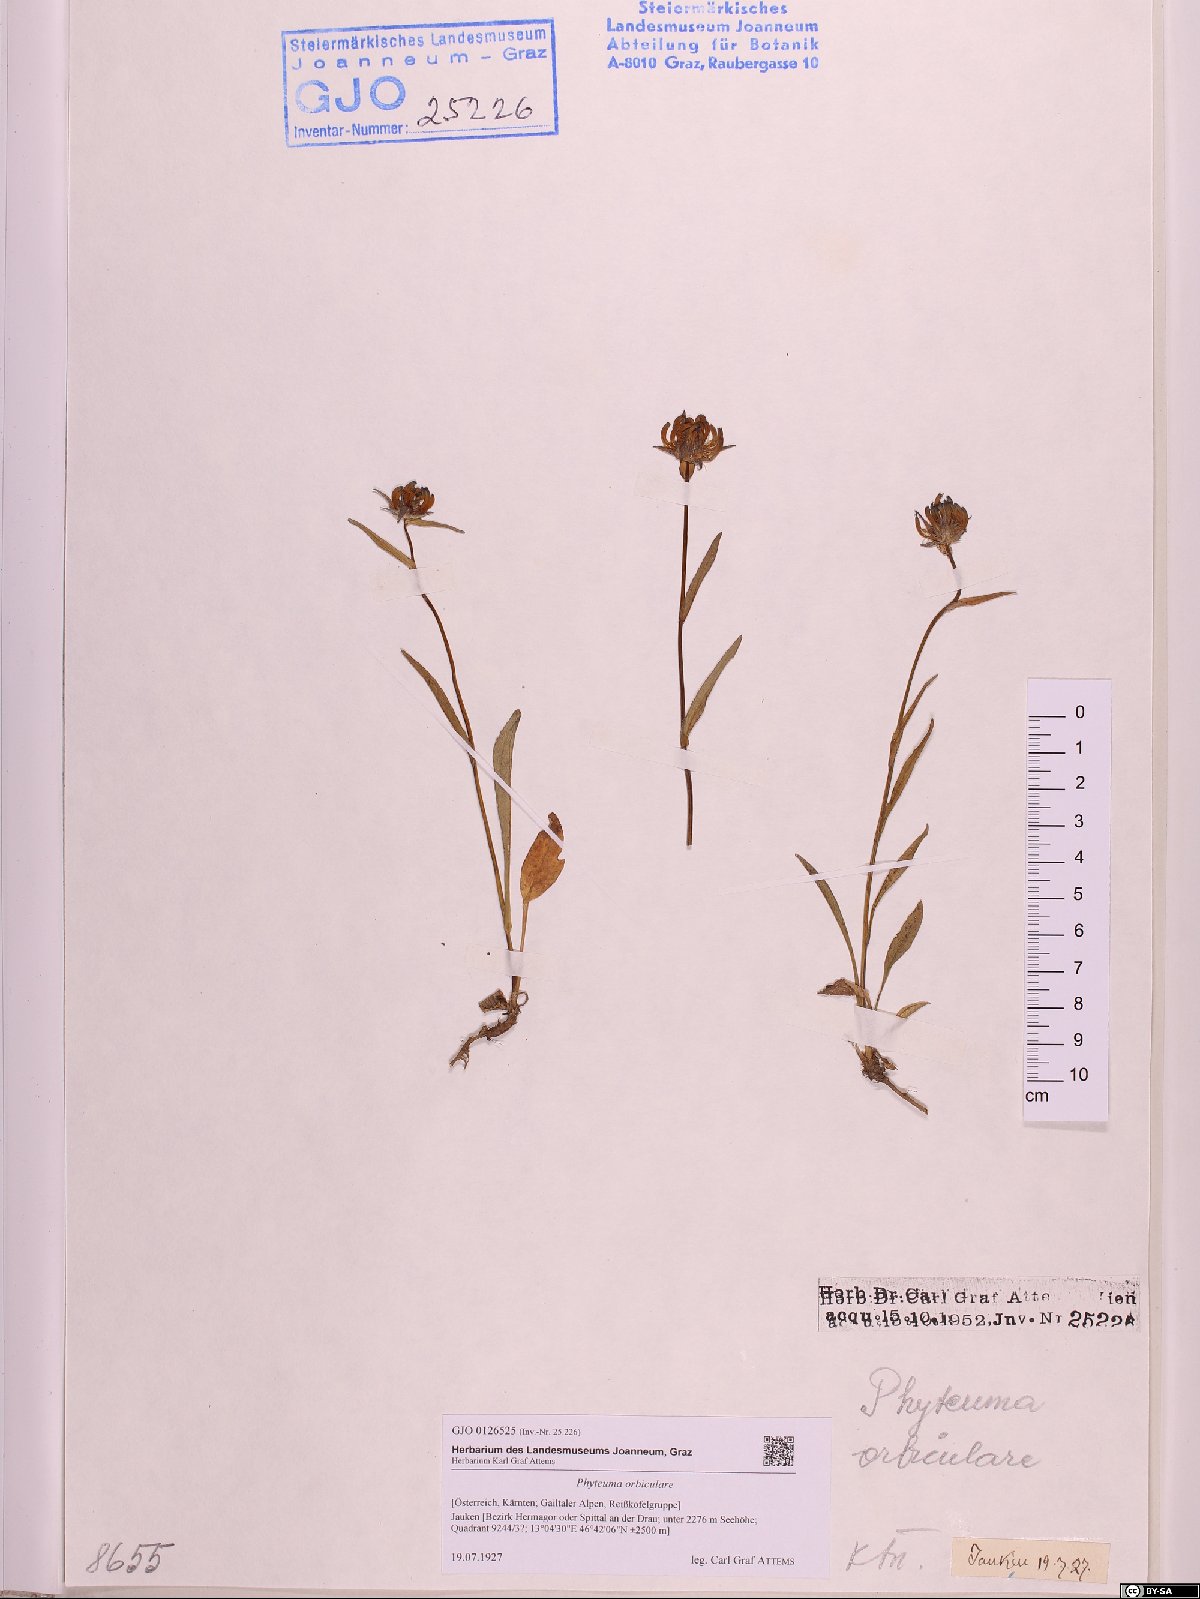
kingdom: Plantae
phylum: Tracheophyta
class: Magnoliopsida
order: Asterales
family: Campanulaceae
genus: Phyteuma
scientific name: Phyteuma orbiculare
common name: Round-headed rampion
